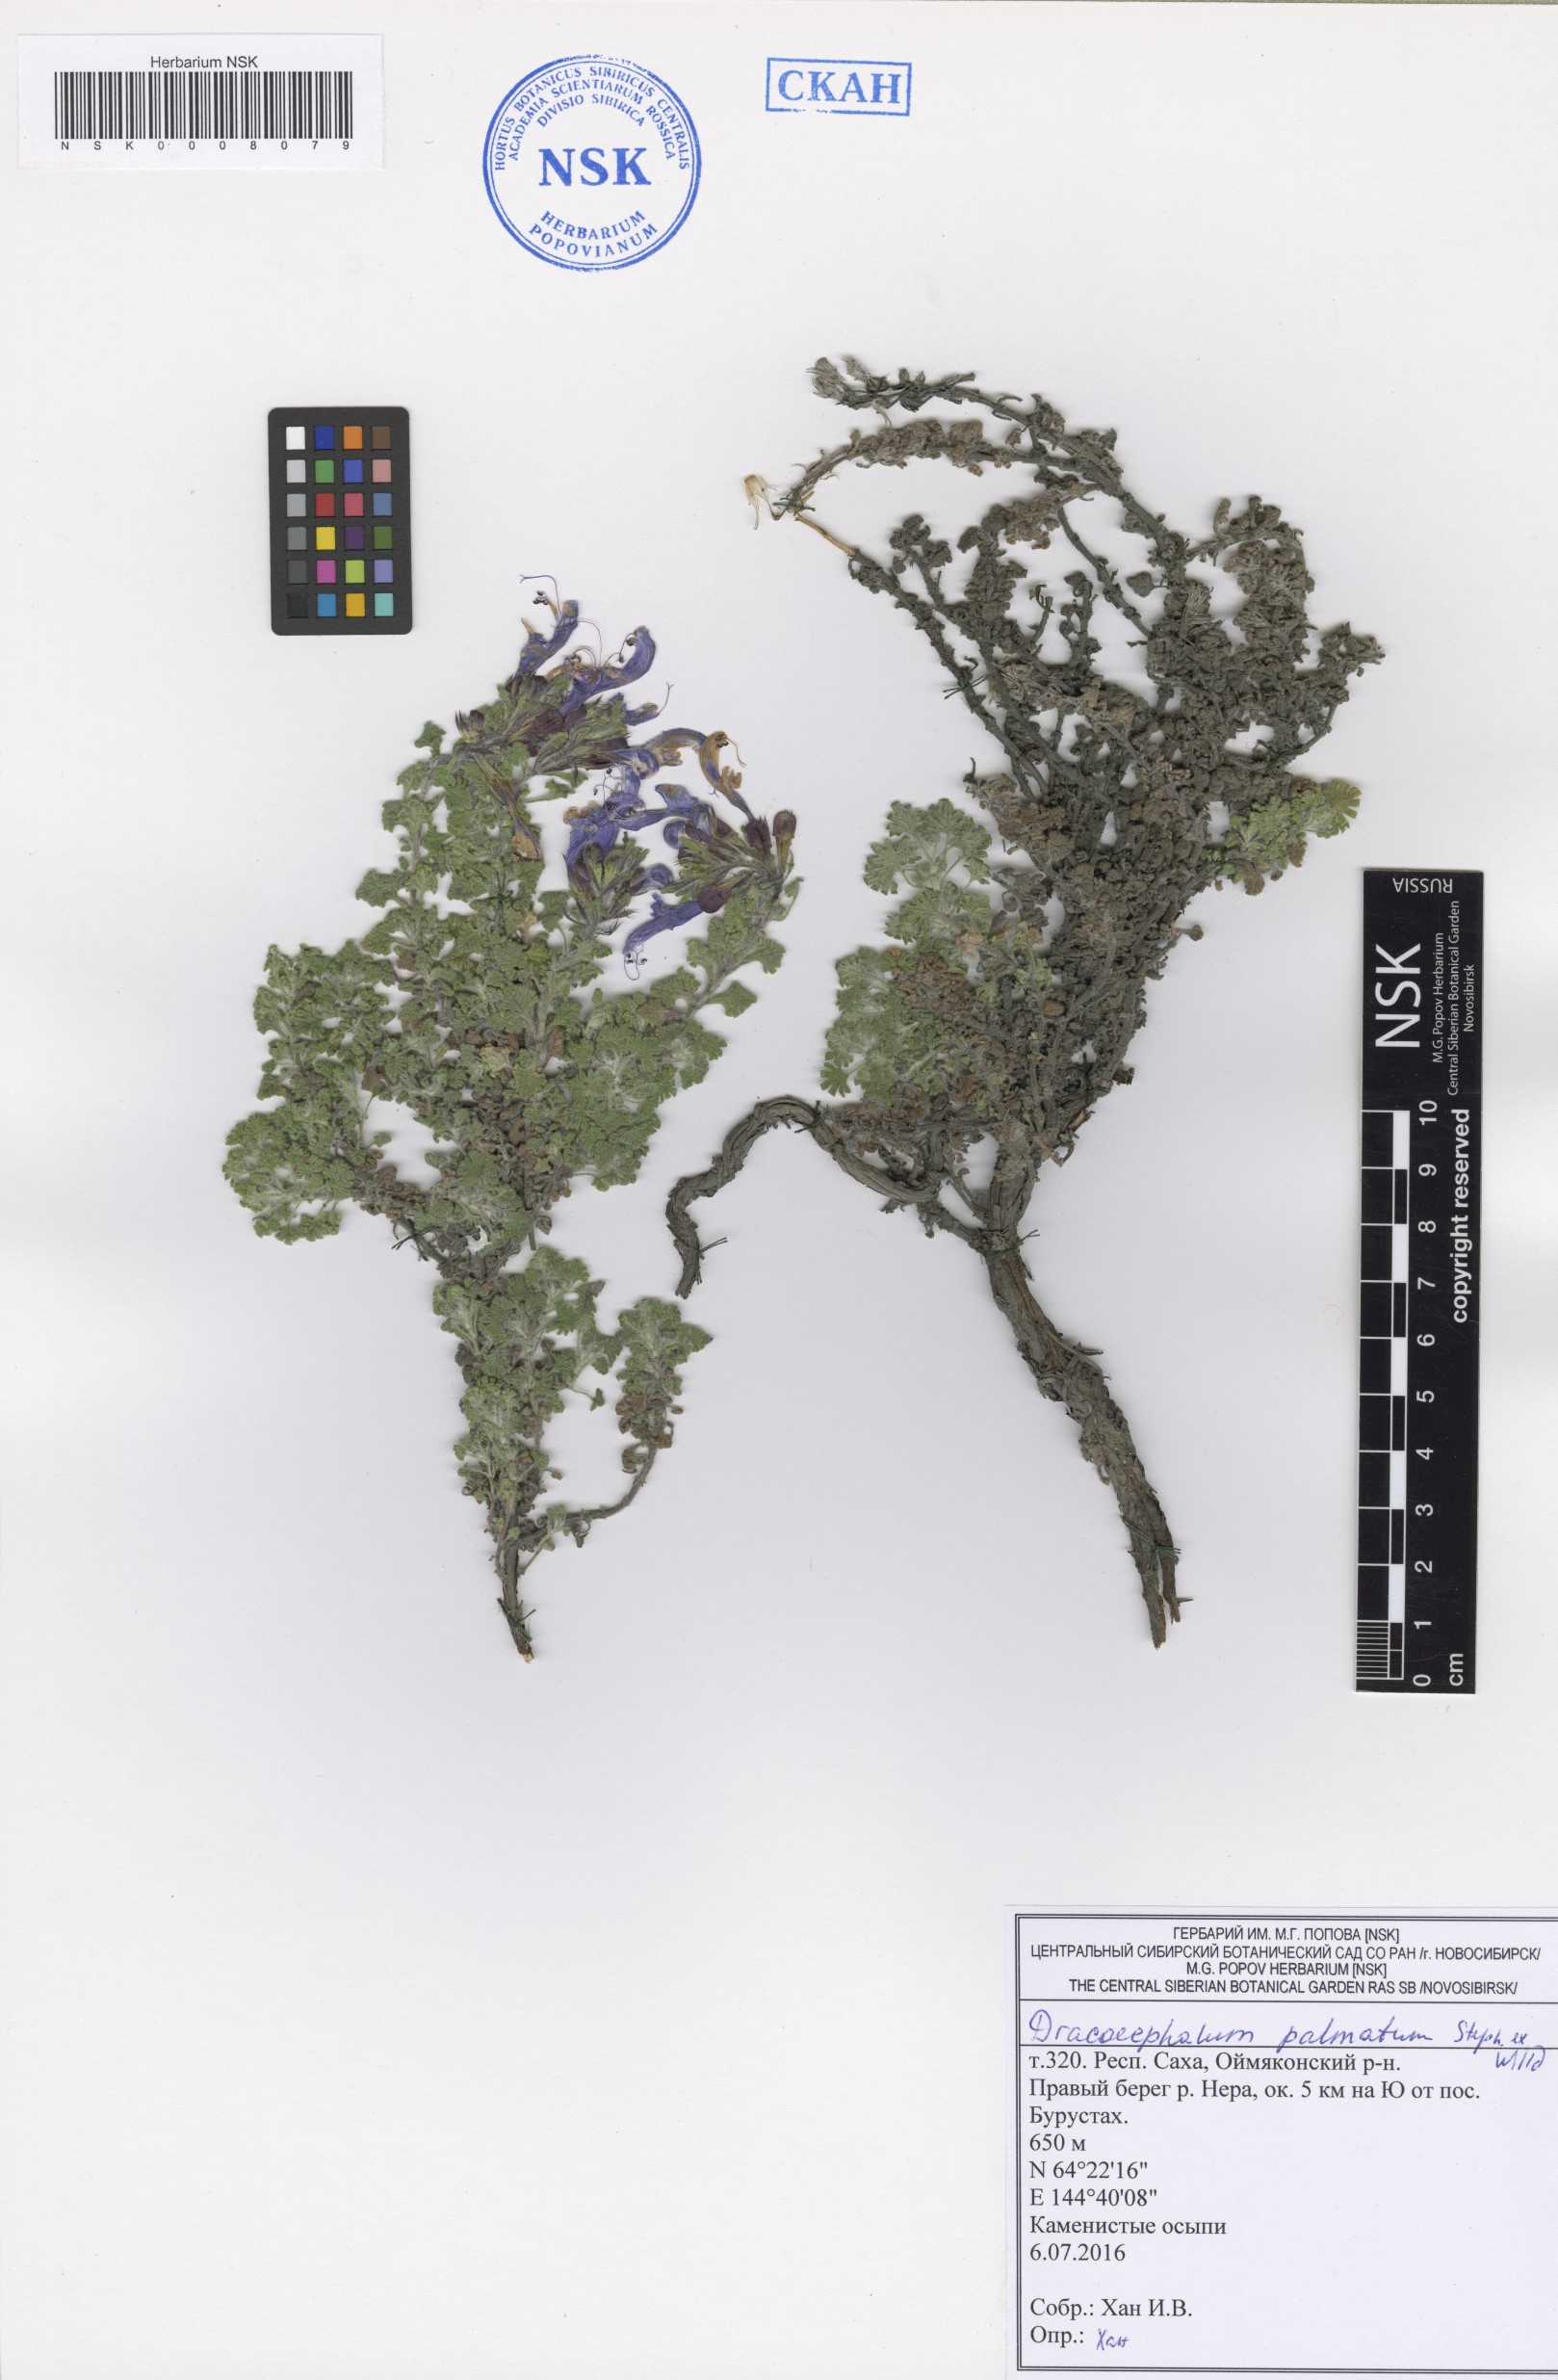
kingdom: Plantae
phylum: Tracheophyta
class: Magnoliopsida
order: Lamiales
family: Lamiaceae
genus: Dracocephalum
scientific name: Dracocephalum palmatum
